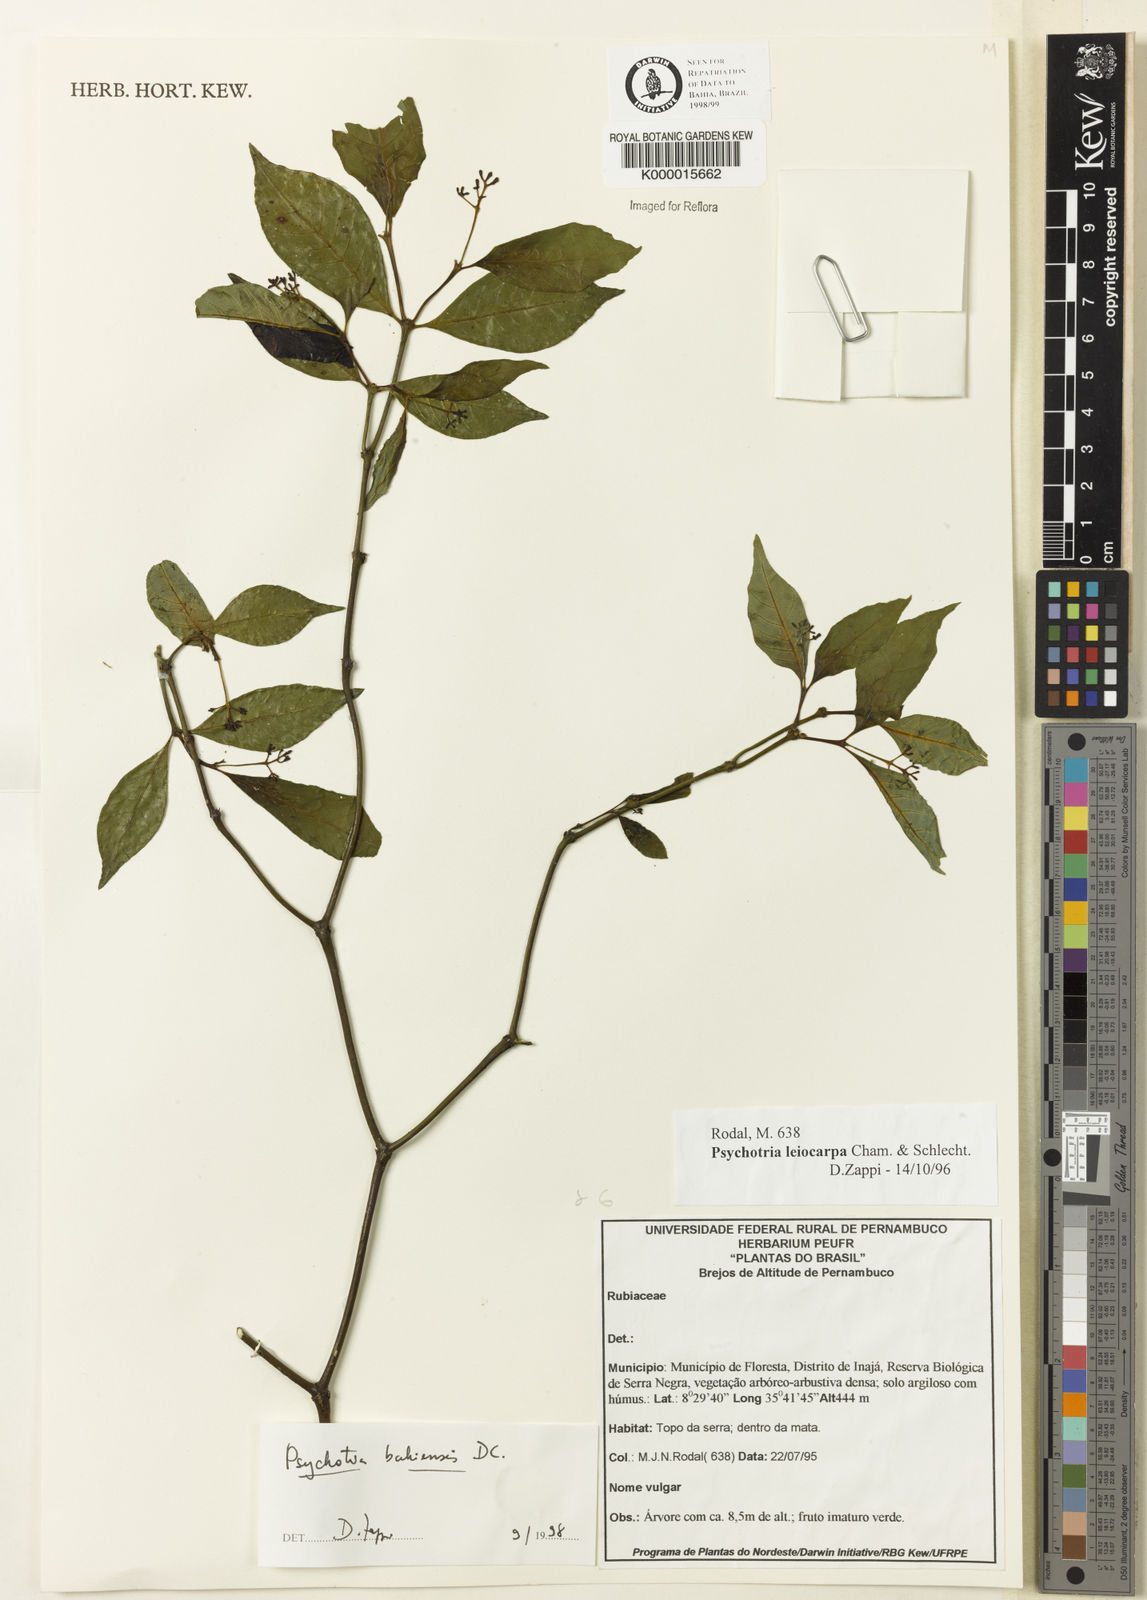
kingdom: Plantae
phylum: Tracheophyta
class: Magnoliopsida
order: Gentianales
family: Rubiaceae
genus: Psychotria
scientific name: Psychotria bahiensis
